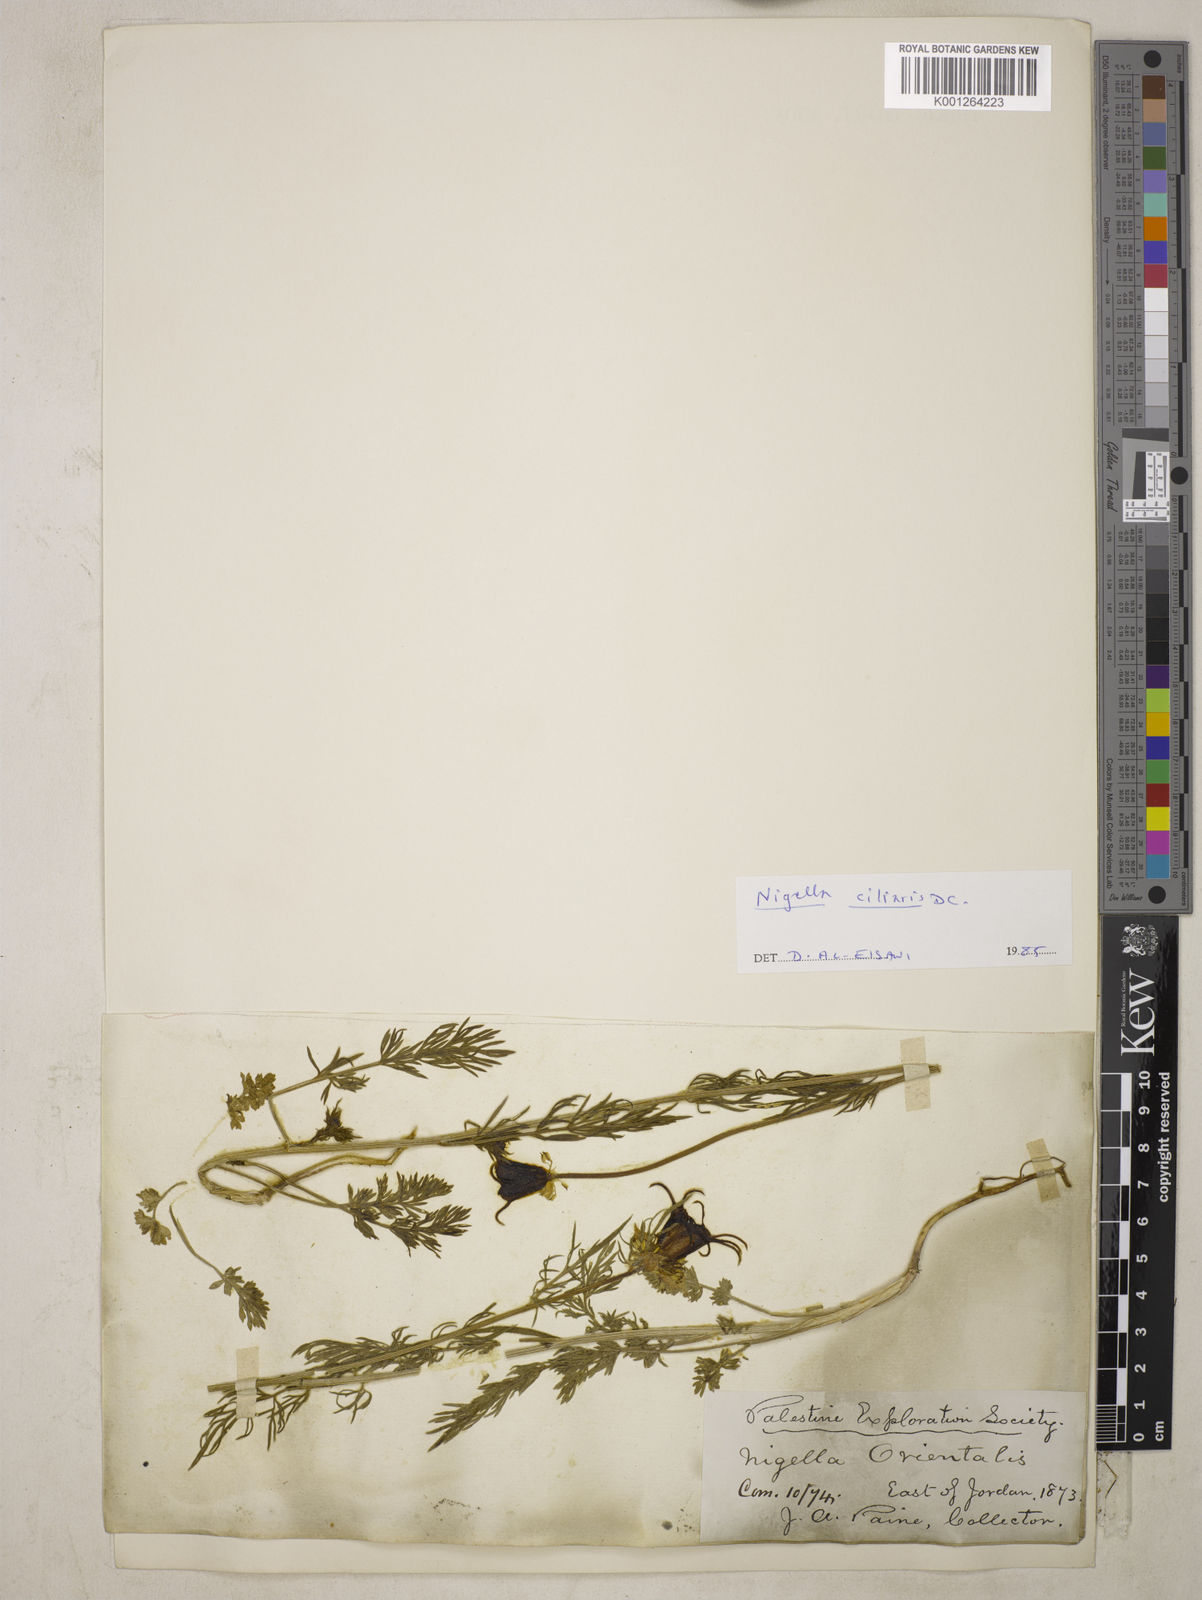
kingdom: Plantae
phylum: Tracheophyta
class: Magnoliopsida
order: Ranunculales
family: Ranunculaceae
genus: Nigella
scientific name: Nigella ciliaris
